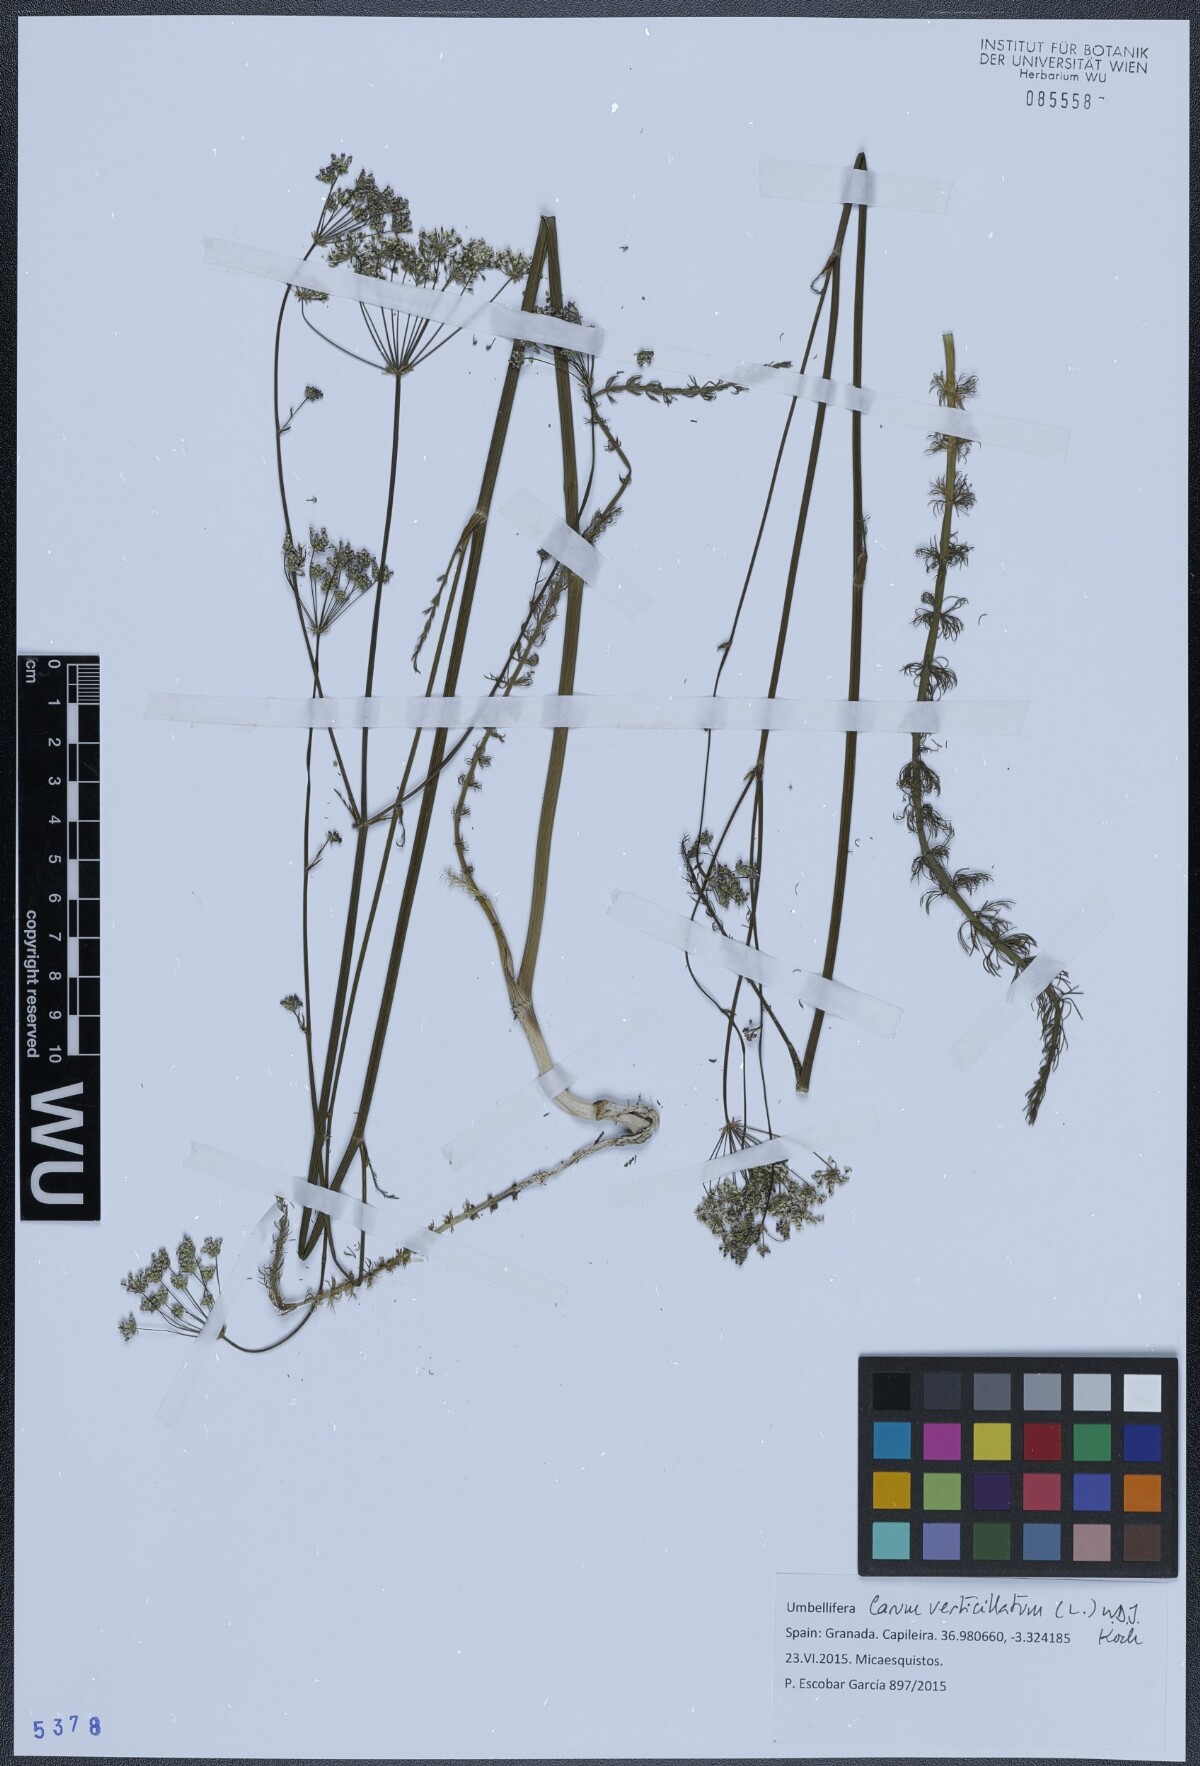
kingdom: Plantae
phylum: Tracheophyta
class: Magnoliopsida
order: Apiales
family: Apiaceae
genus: Trocdaris
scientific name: Trocdaris verticillatum
